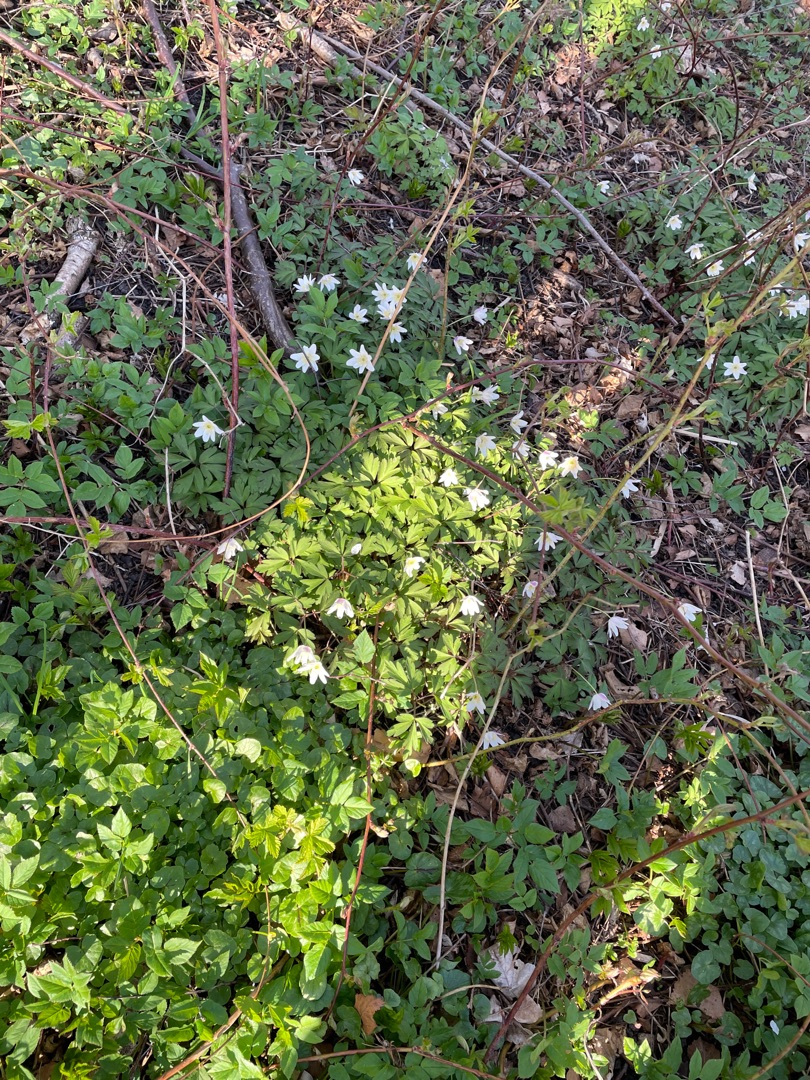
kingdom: Plantae
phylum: Tracheophyta
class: Magnoliopsida
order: Ranunculales
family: Ranunculaceae
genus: Anemone
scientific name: Anemone nemorosa
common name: Hvid anemone
